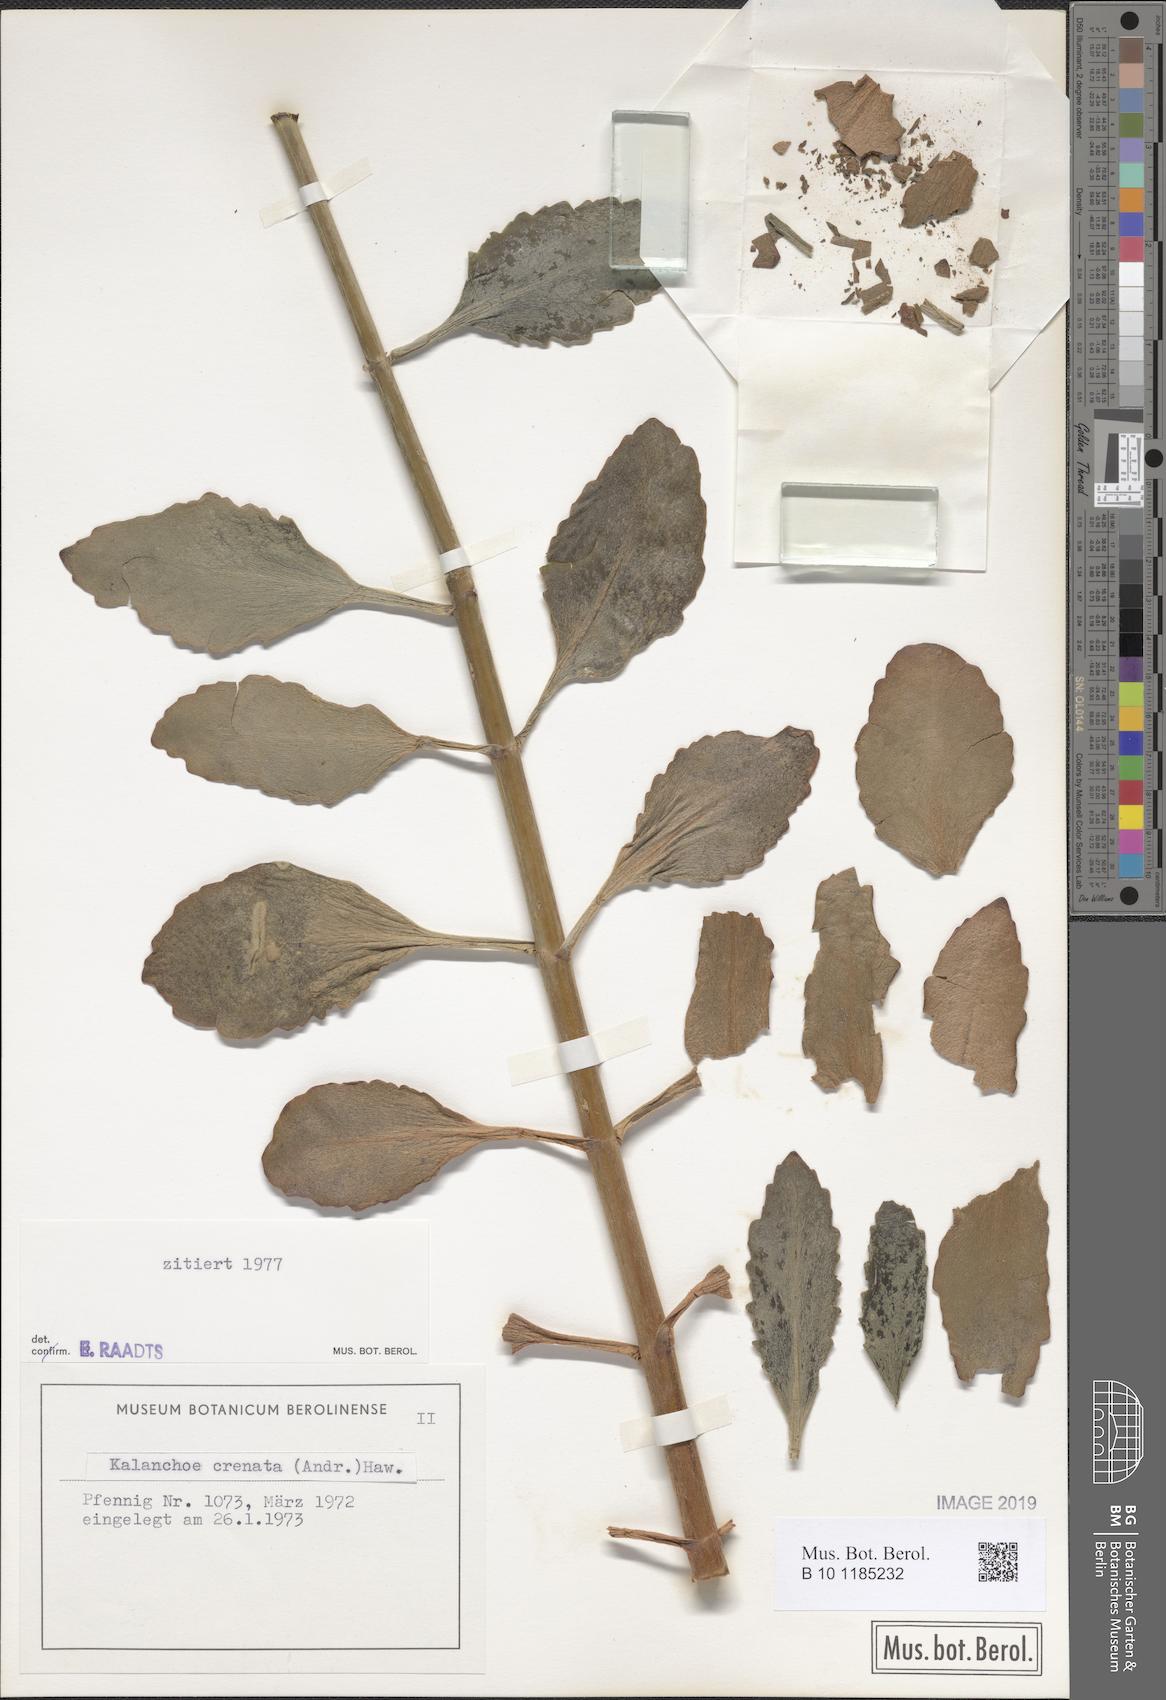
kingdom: Plantae
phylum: Tracheophyta
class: Magnoliopsida
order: Saxifragales
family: Crassulaceae
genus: Kalanchoe
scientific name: Kalanchoe crenata
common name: Neverdie
